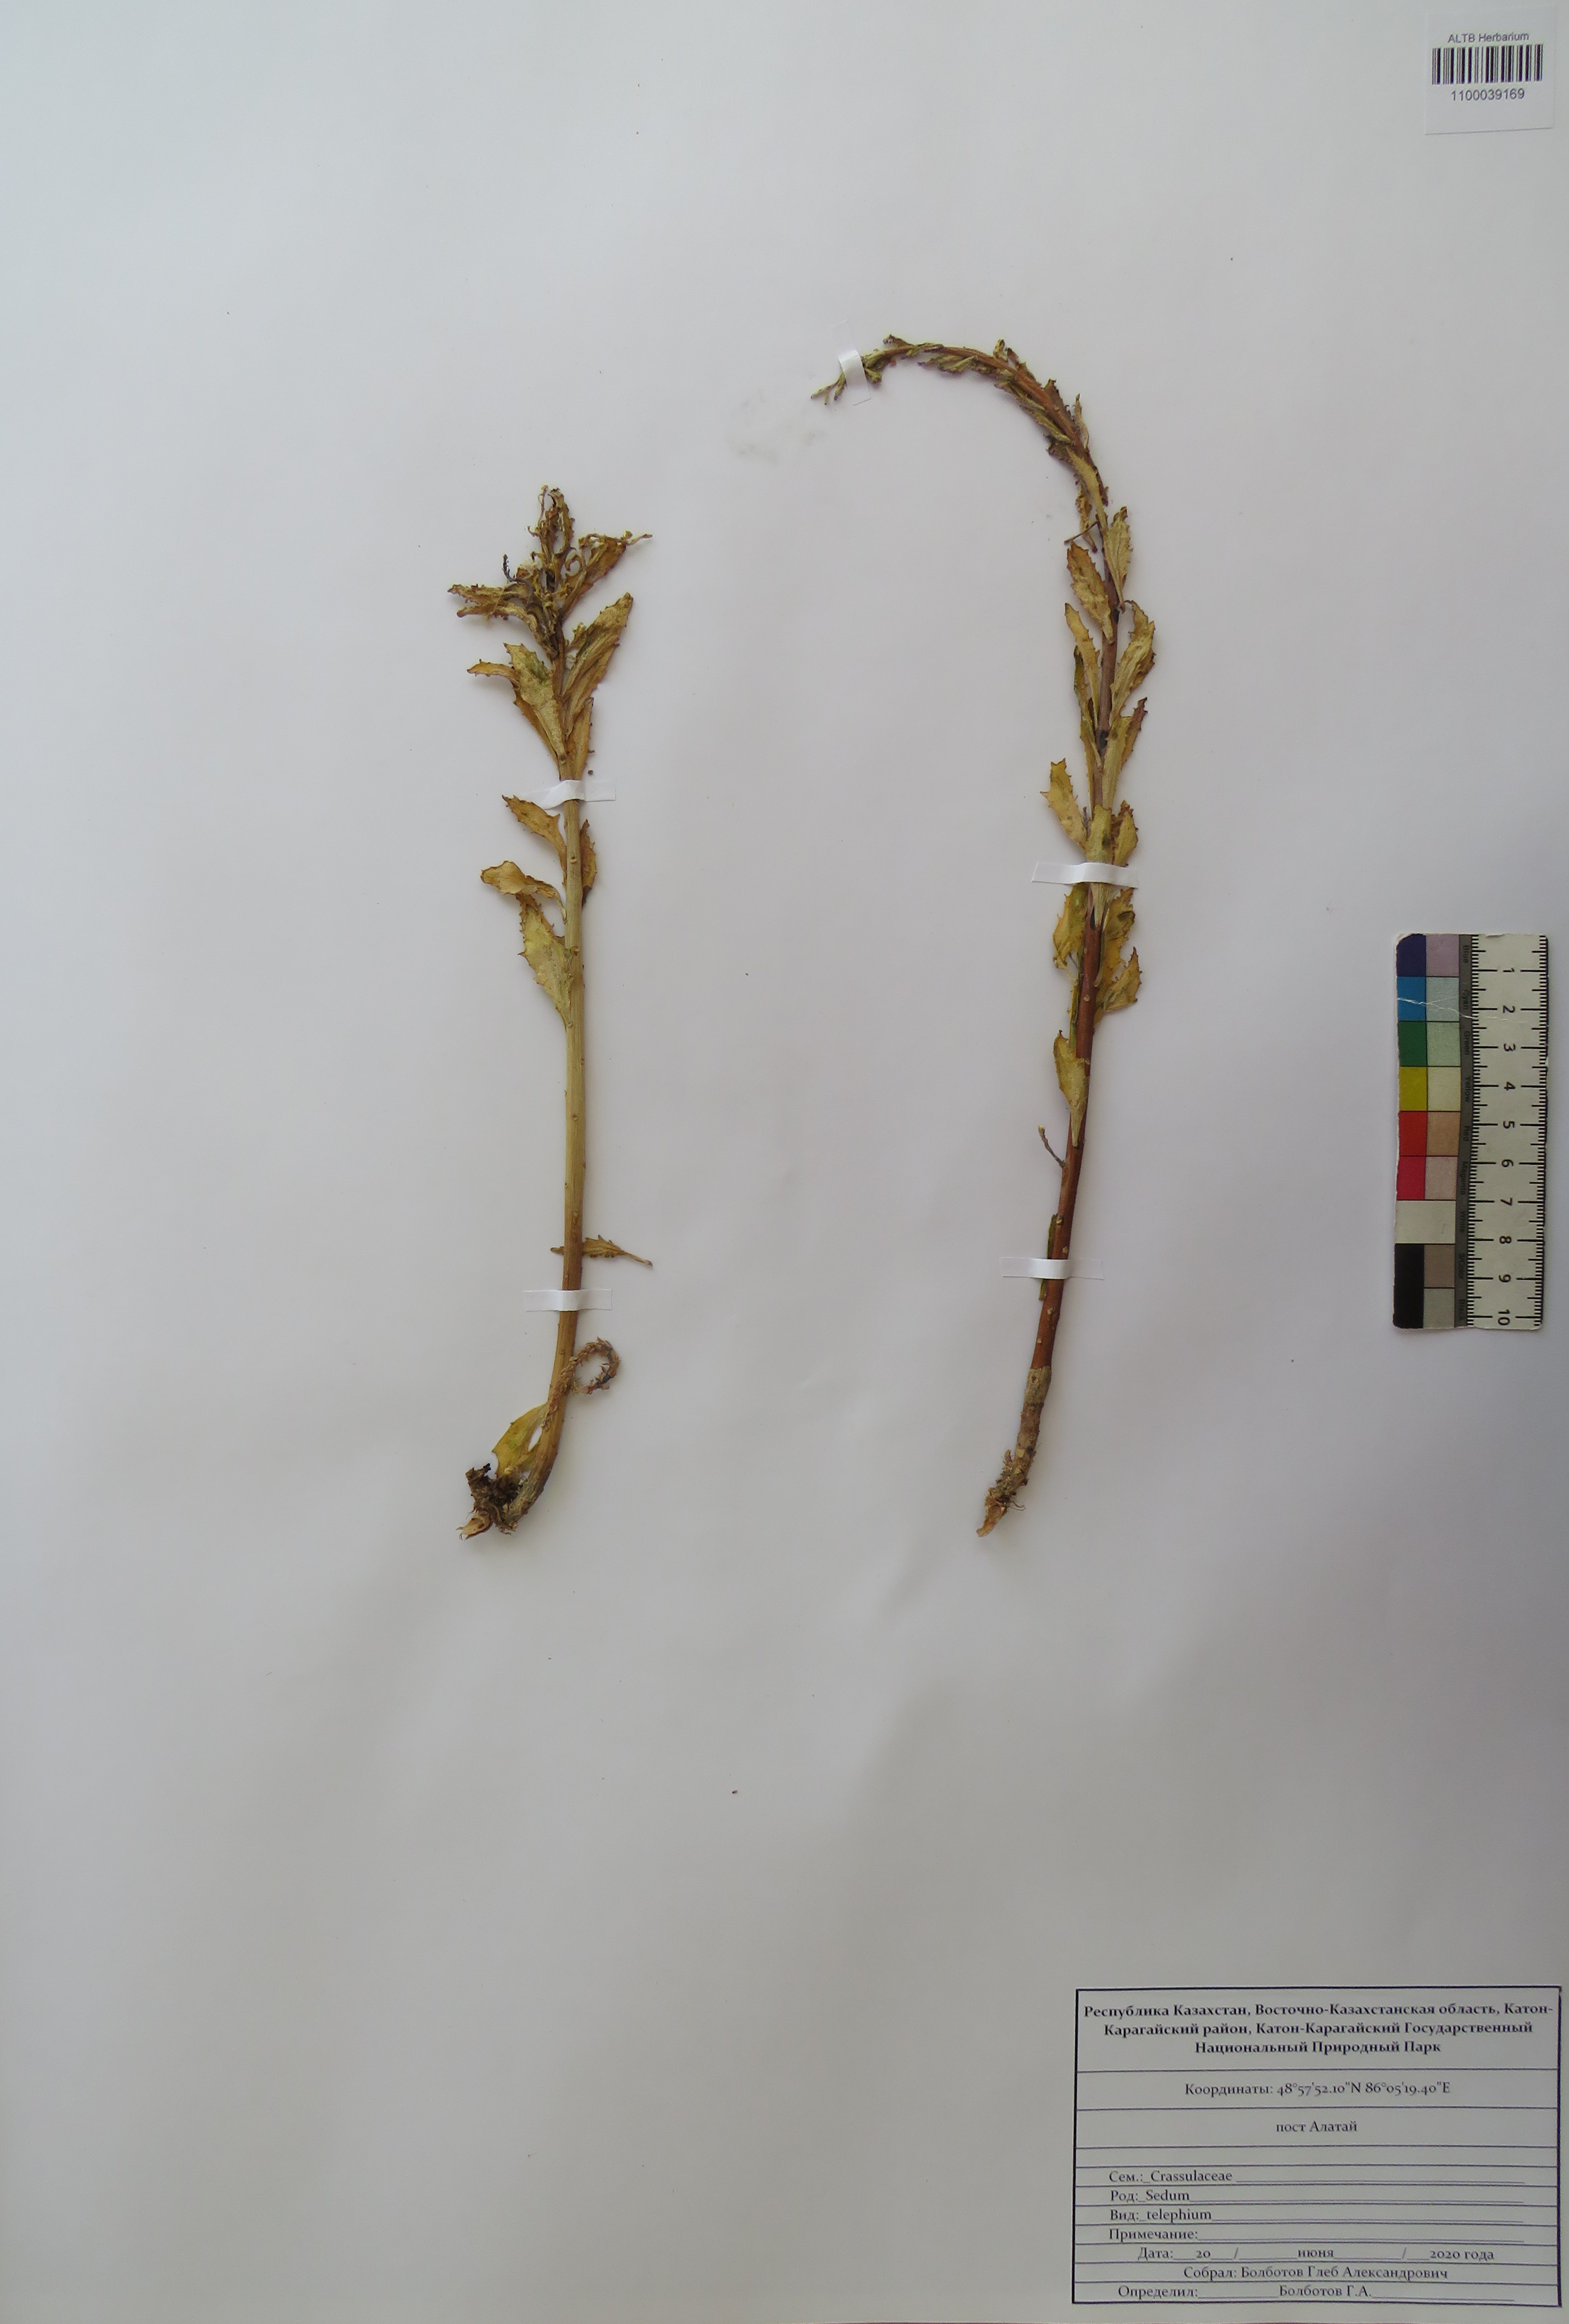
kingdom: Plantae
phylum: Tracheophyta
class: Magnoliopsida
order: Saxifragales
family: Crassulaceae
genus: Hylotelephium
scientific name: Hylotelephium telephium
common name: Live-forever
